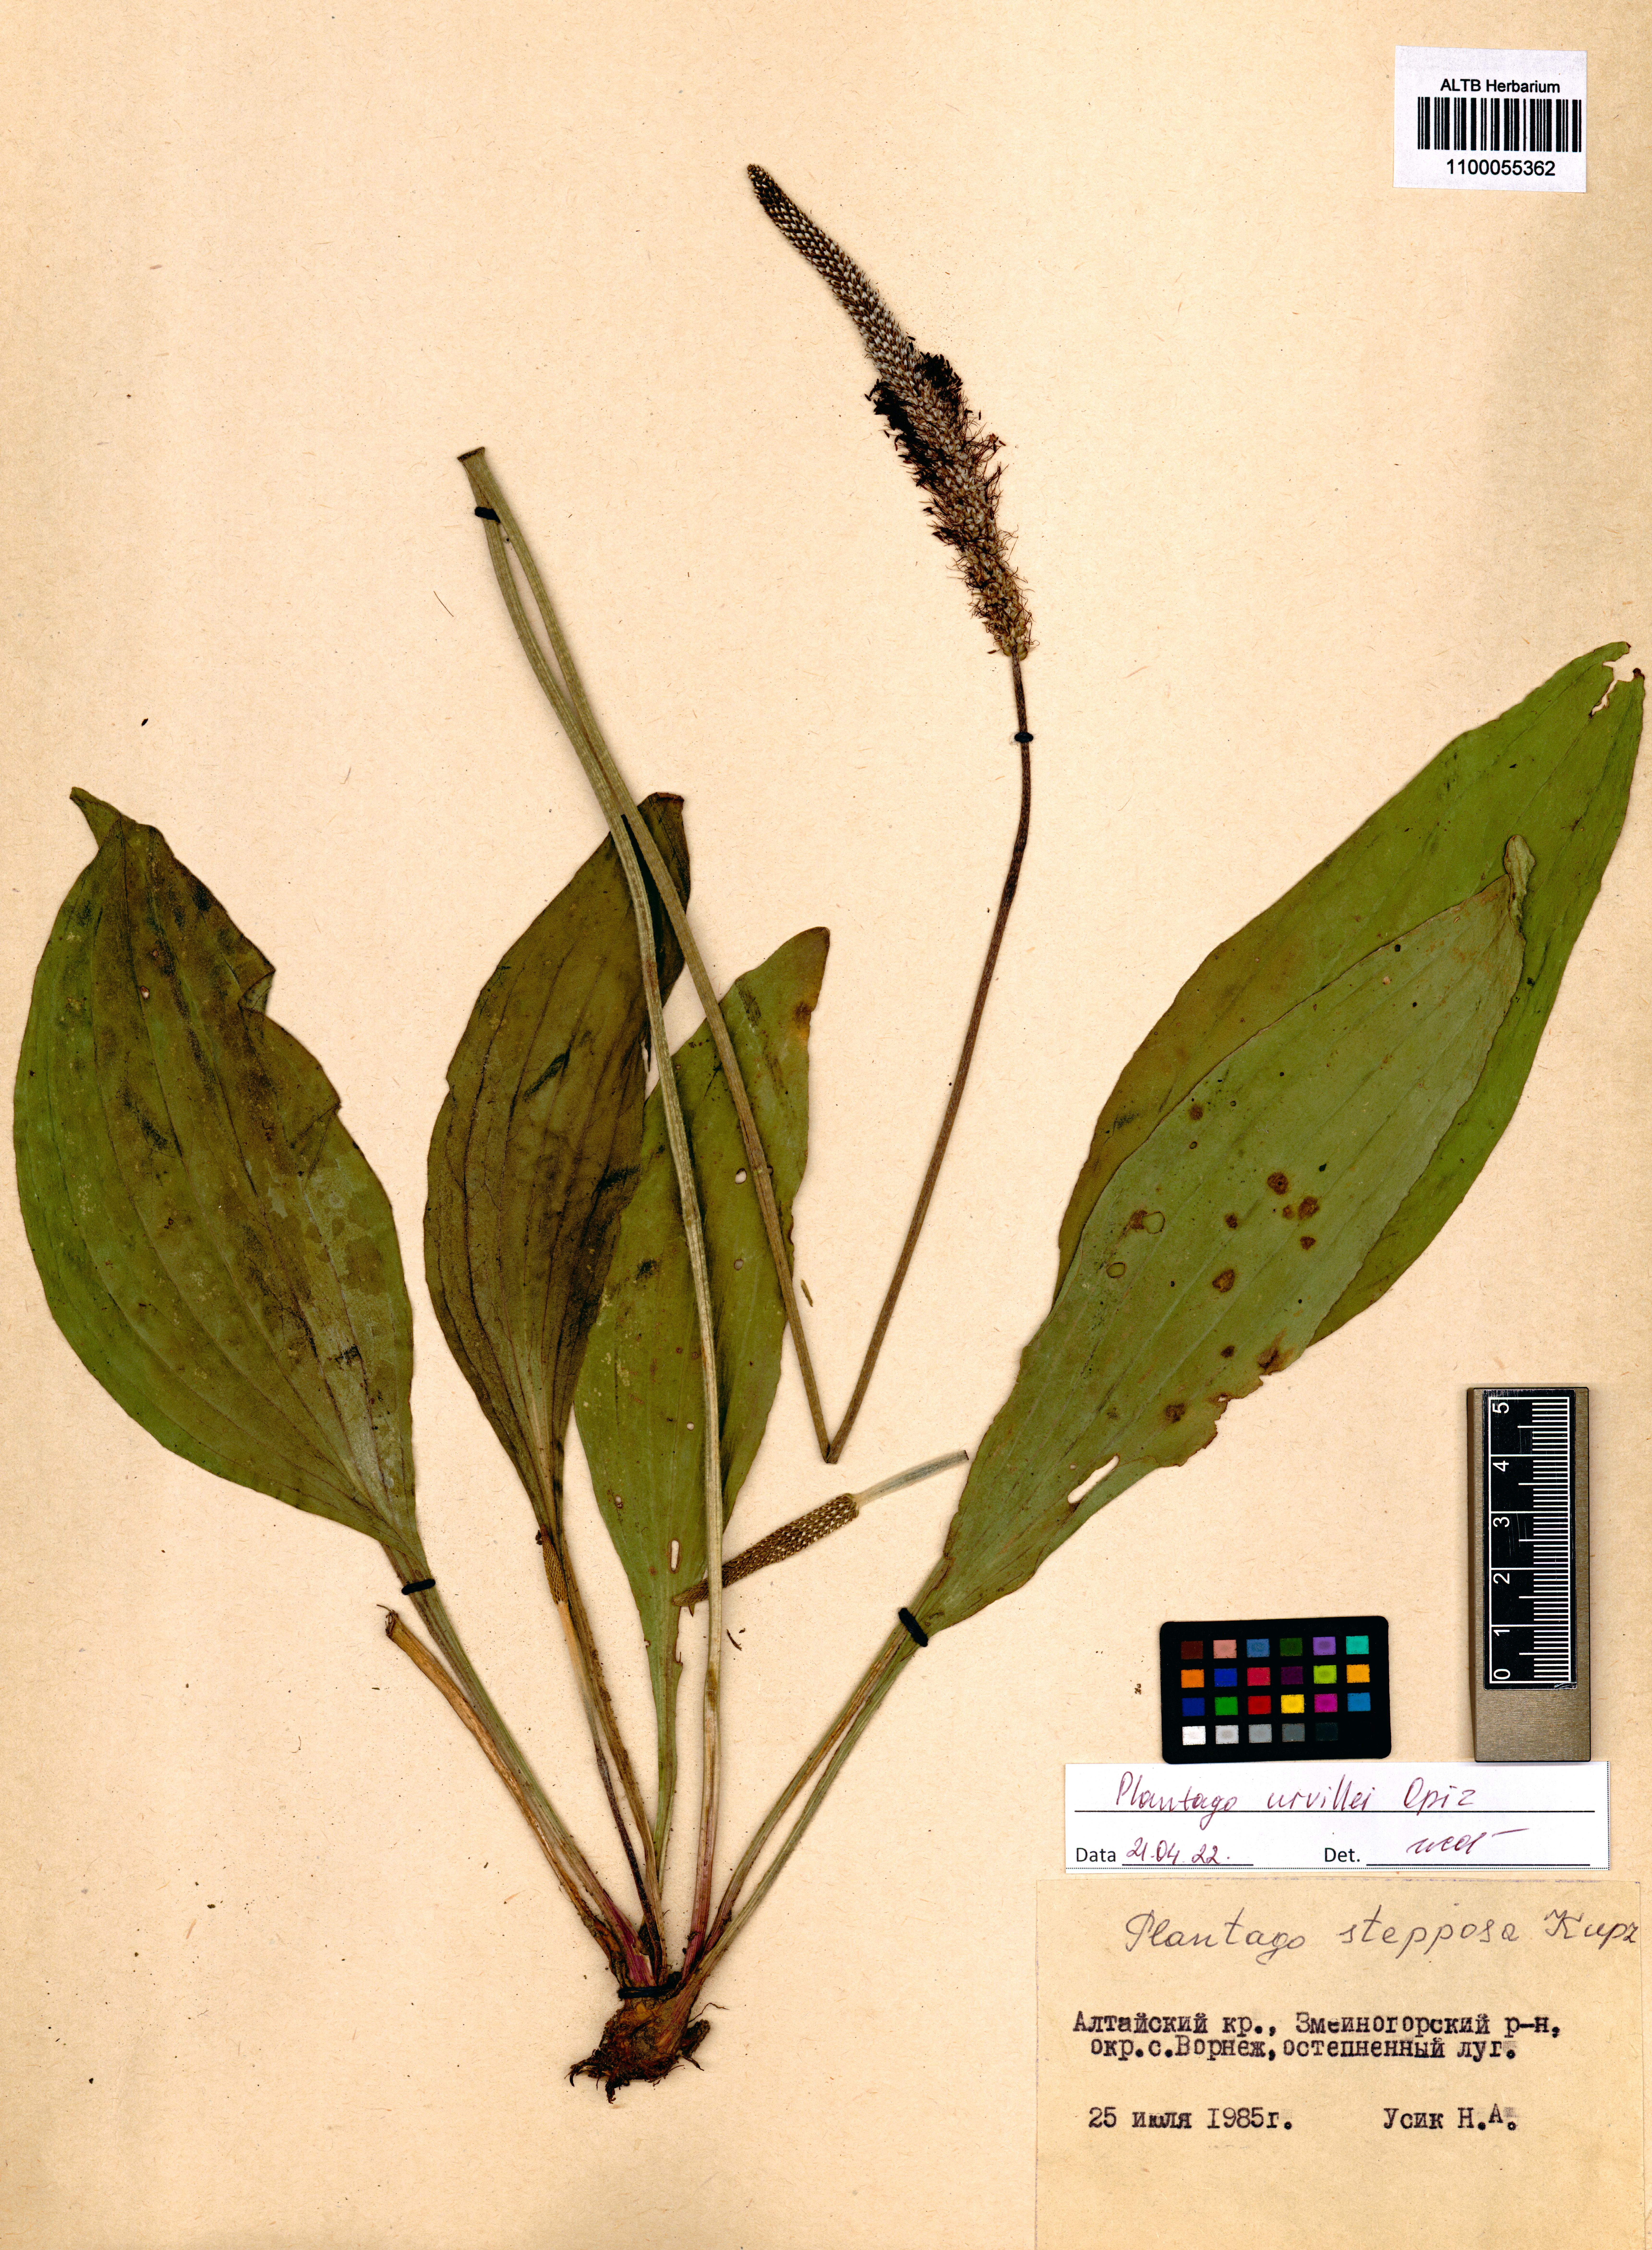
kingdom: Plantae
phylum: Tracheophyta
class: Magnoliopsida
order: Lamiales
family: Plantaginaceae
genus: Plantago
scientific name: Plantago urvillei
